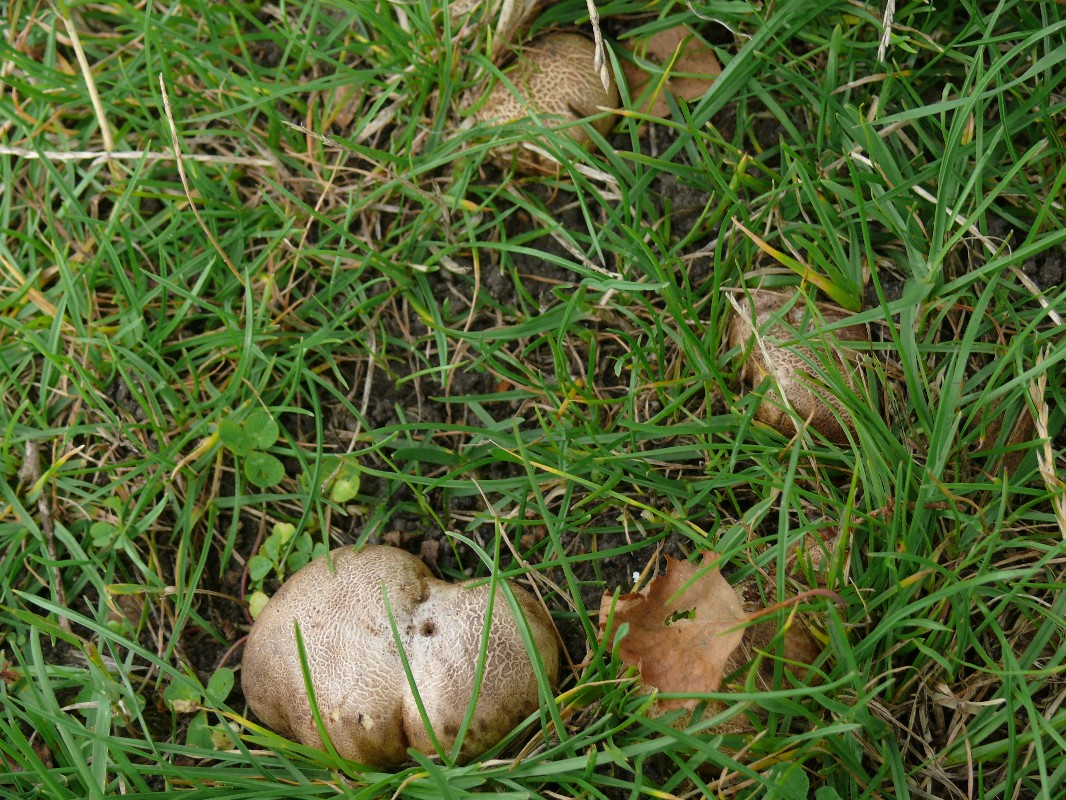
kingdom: Fungi
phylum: Basidiomycota
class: Agaricomycetes
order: Boletales
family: Sclerodermataceae
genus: Scleroderma
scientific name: Scleroderma bovista
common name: bovist-bruskbold
